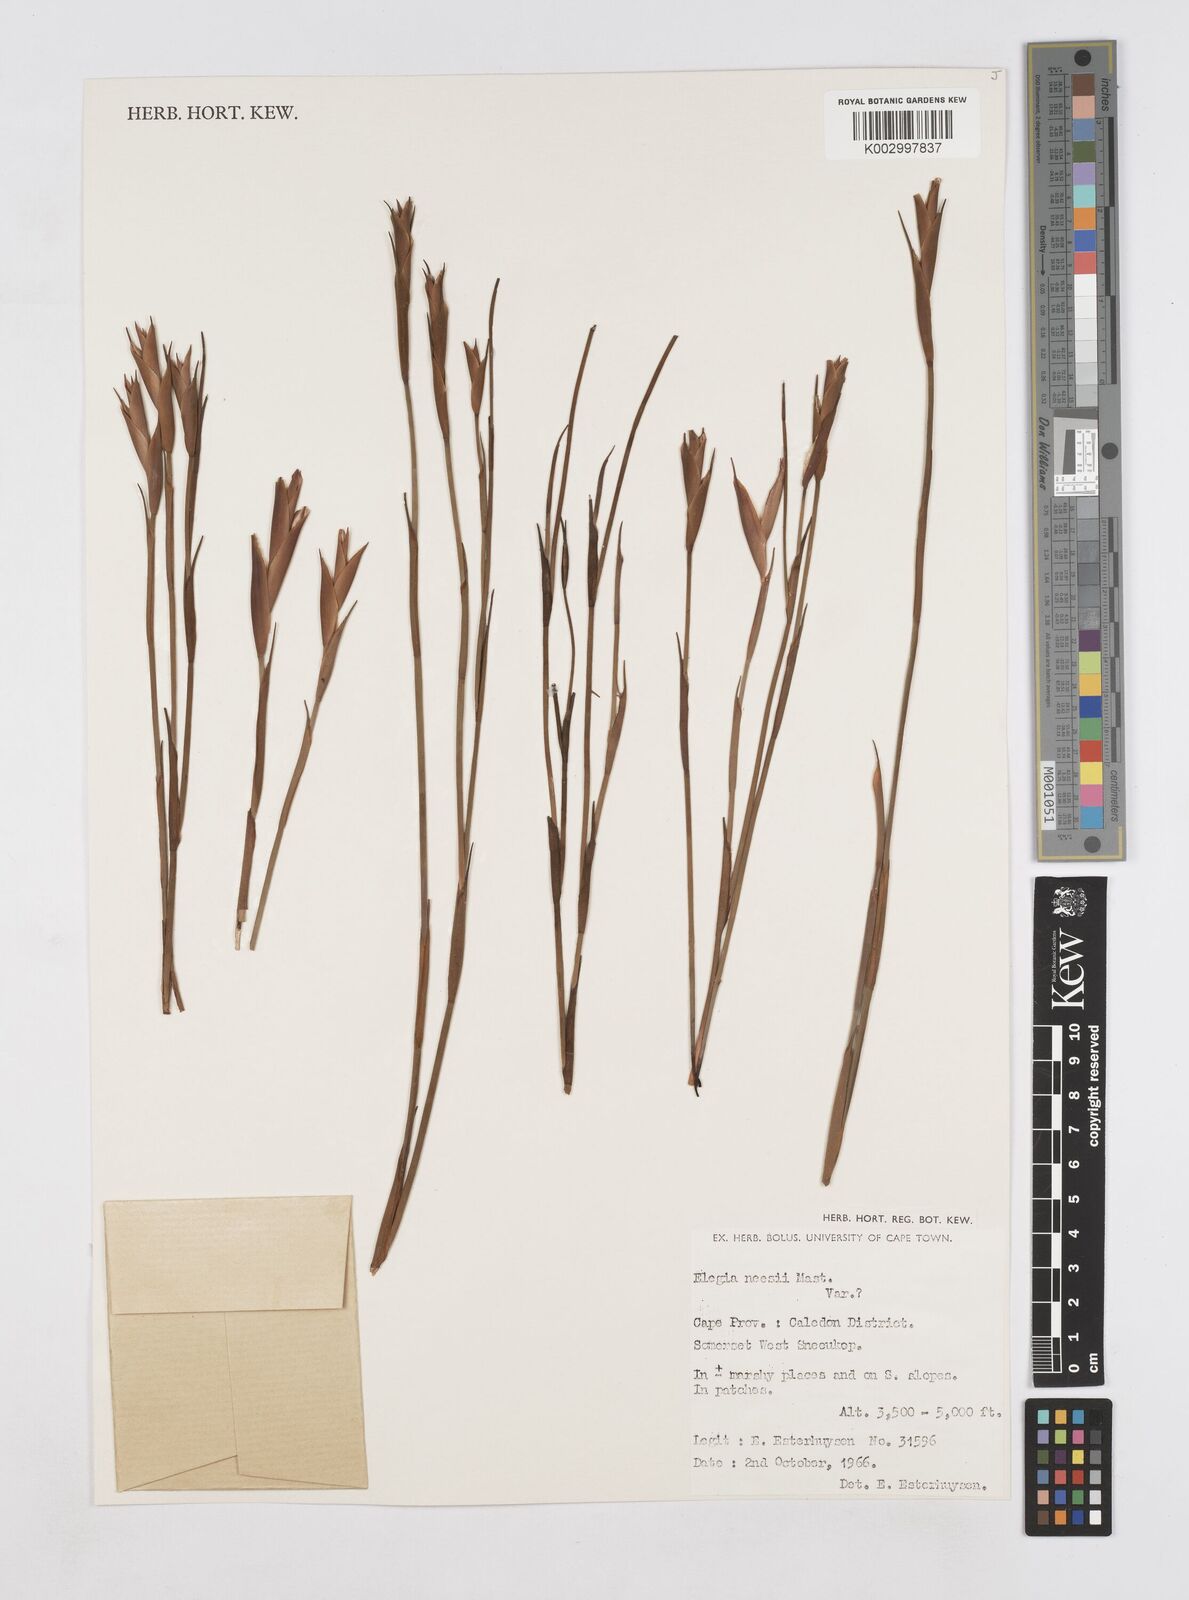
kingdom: Plantae
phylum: Tracheophyta
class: Liliopsida
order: Poales
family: Restionaceae
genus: Elegia
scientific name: Elegia neesii
